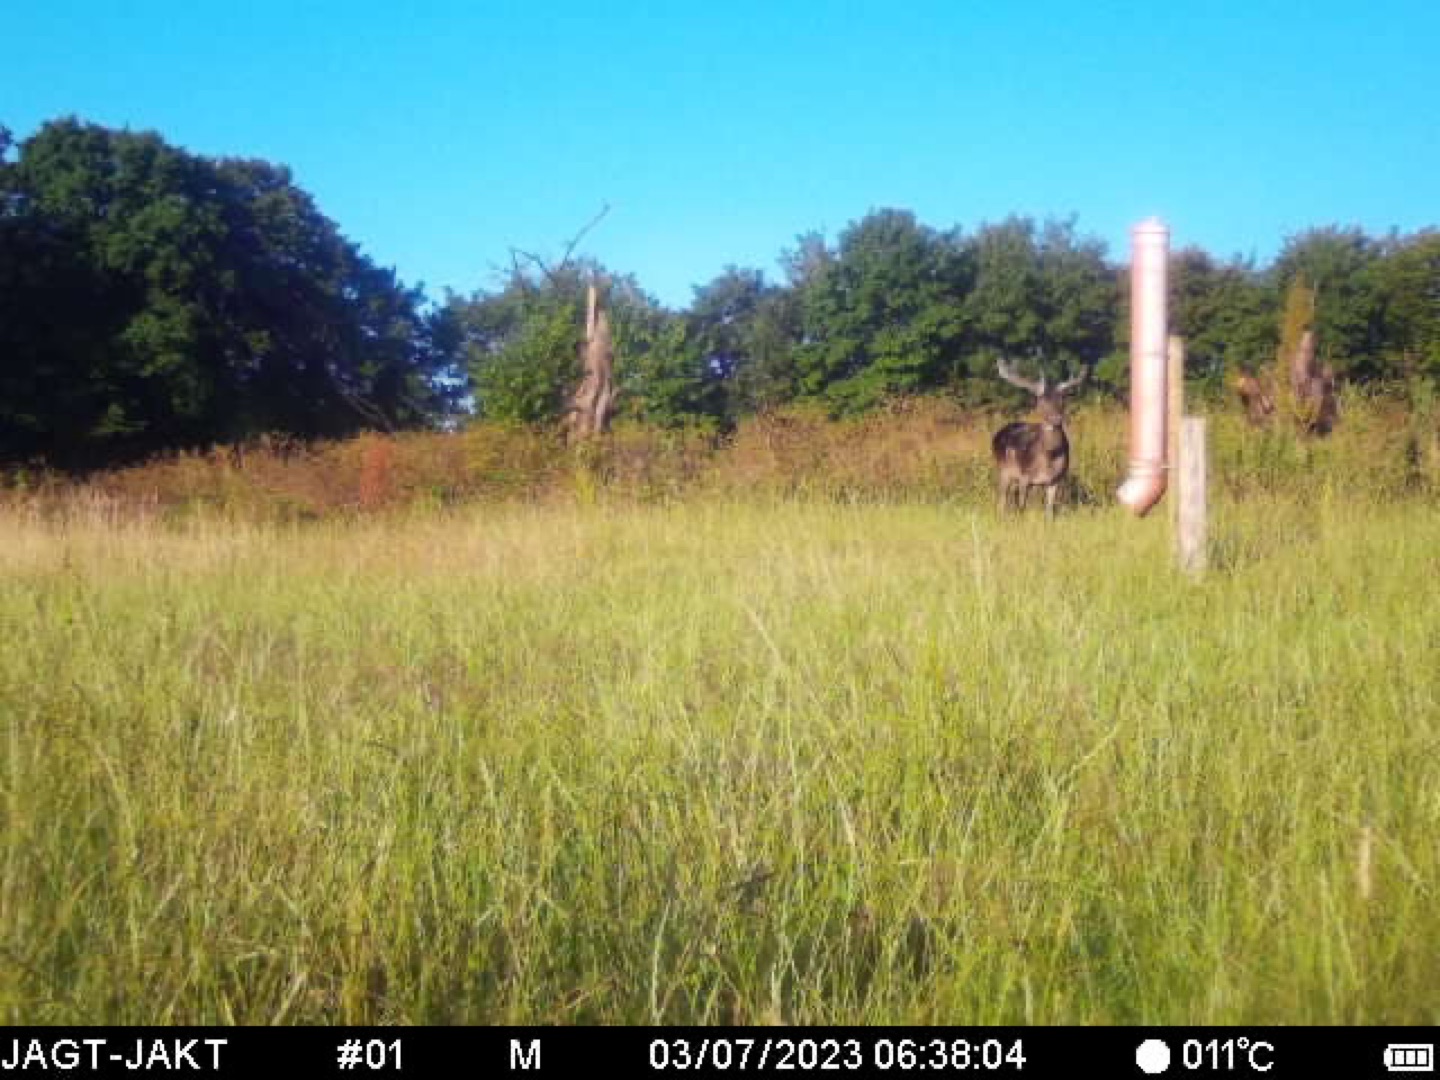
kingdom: Animalia
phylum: Chordata
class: Mammalia
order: Artiodactyla
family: Cervidae
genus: Dama
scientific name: Dama dama
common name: Dådyr
